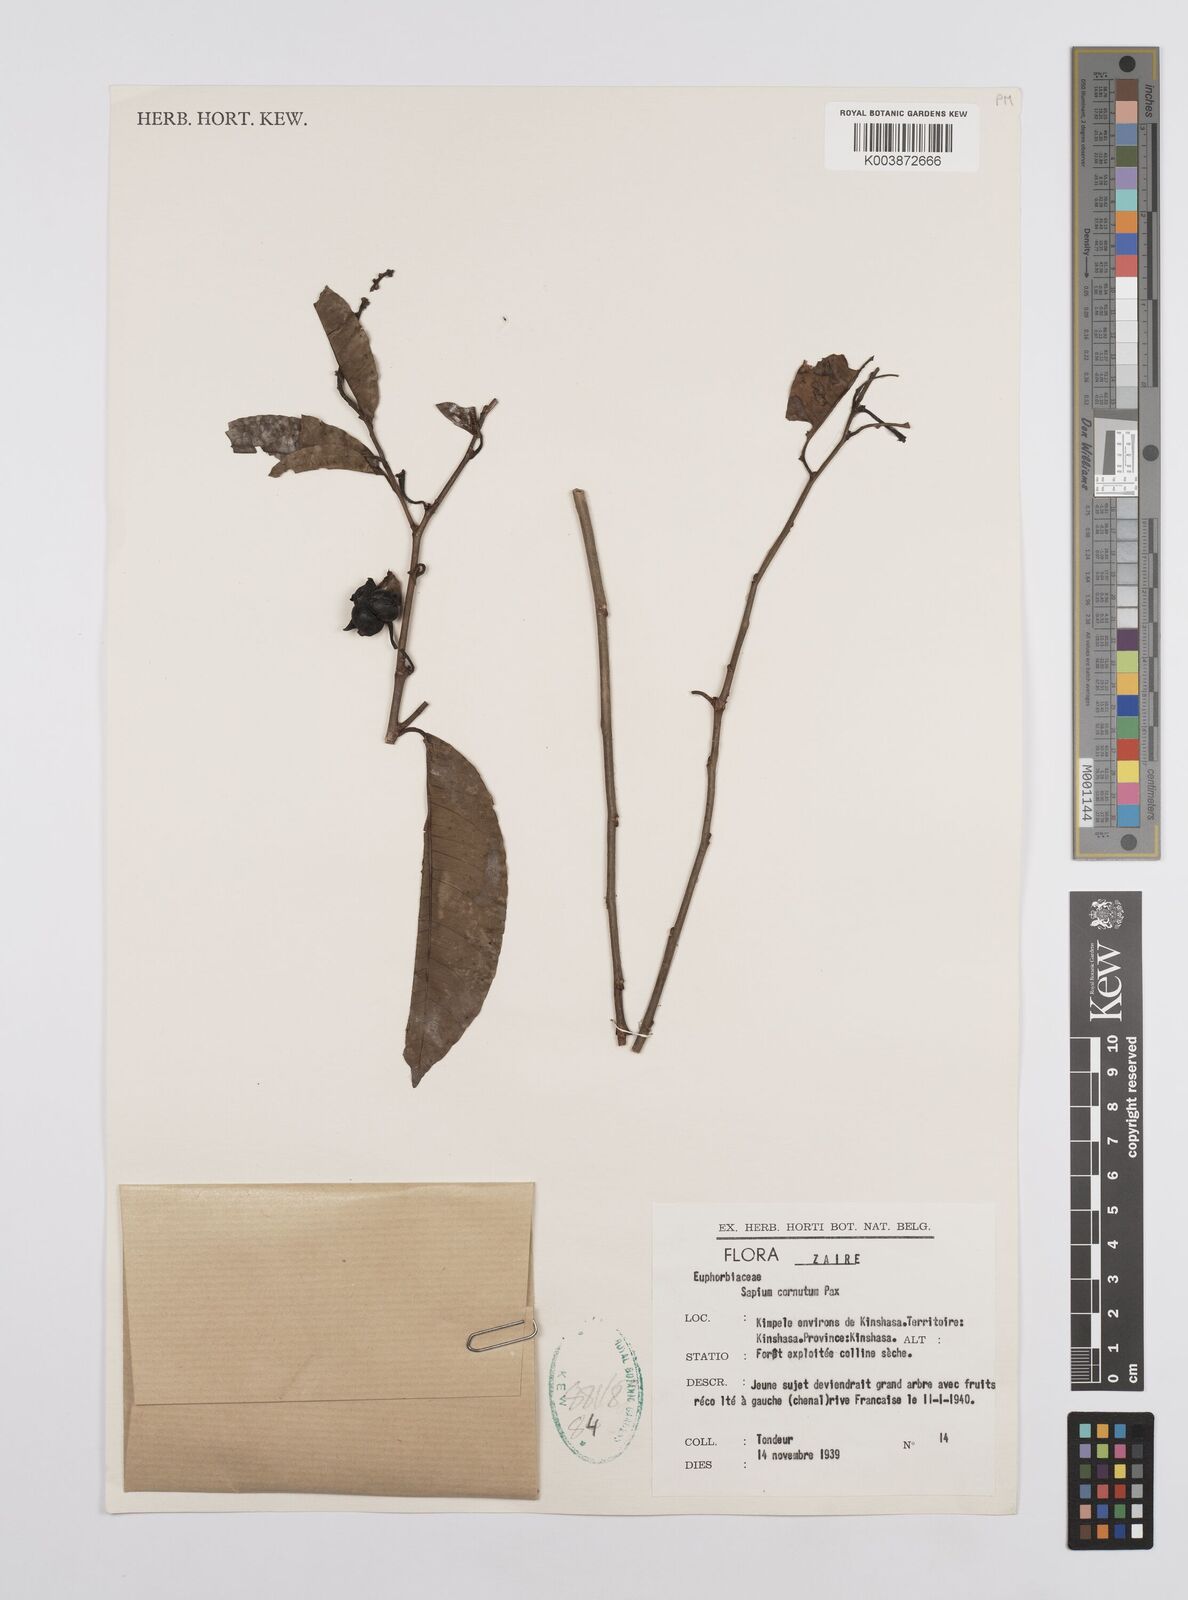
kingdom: Plantae
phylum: Tracheophyta
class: Magnoliopsida
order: Malpighiales
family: Euphorbiaceae
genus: Sclerocroton
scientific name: Sclerocroton cornutus
